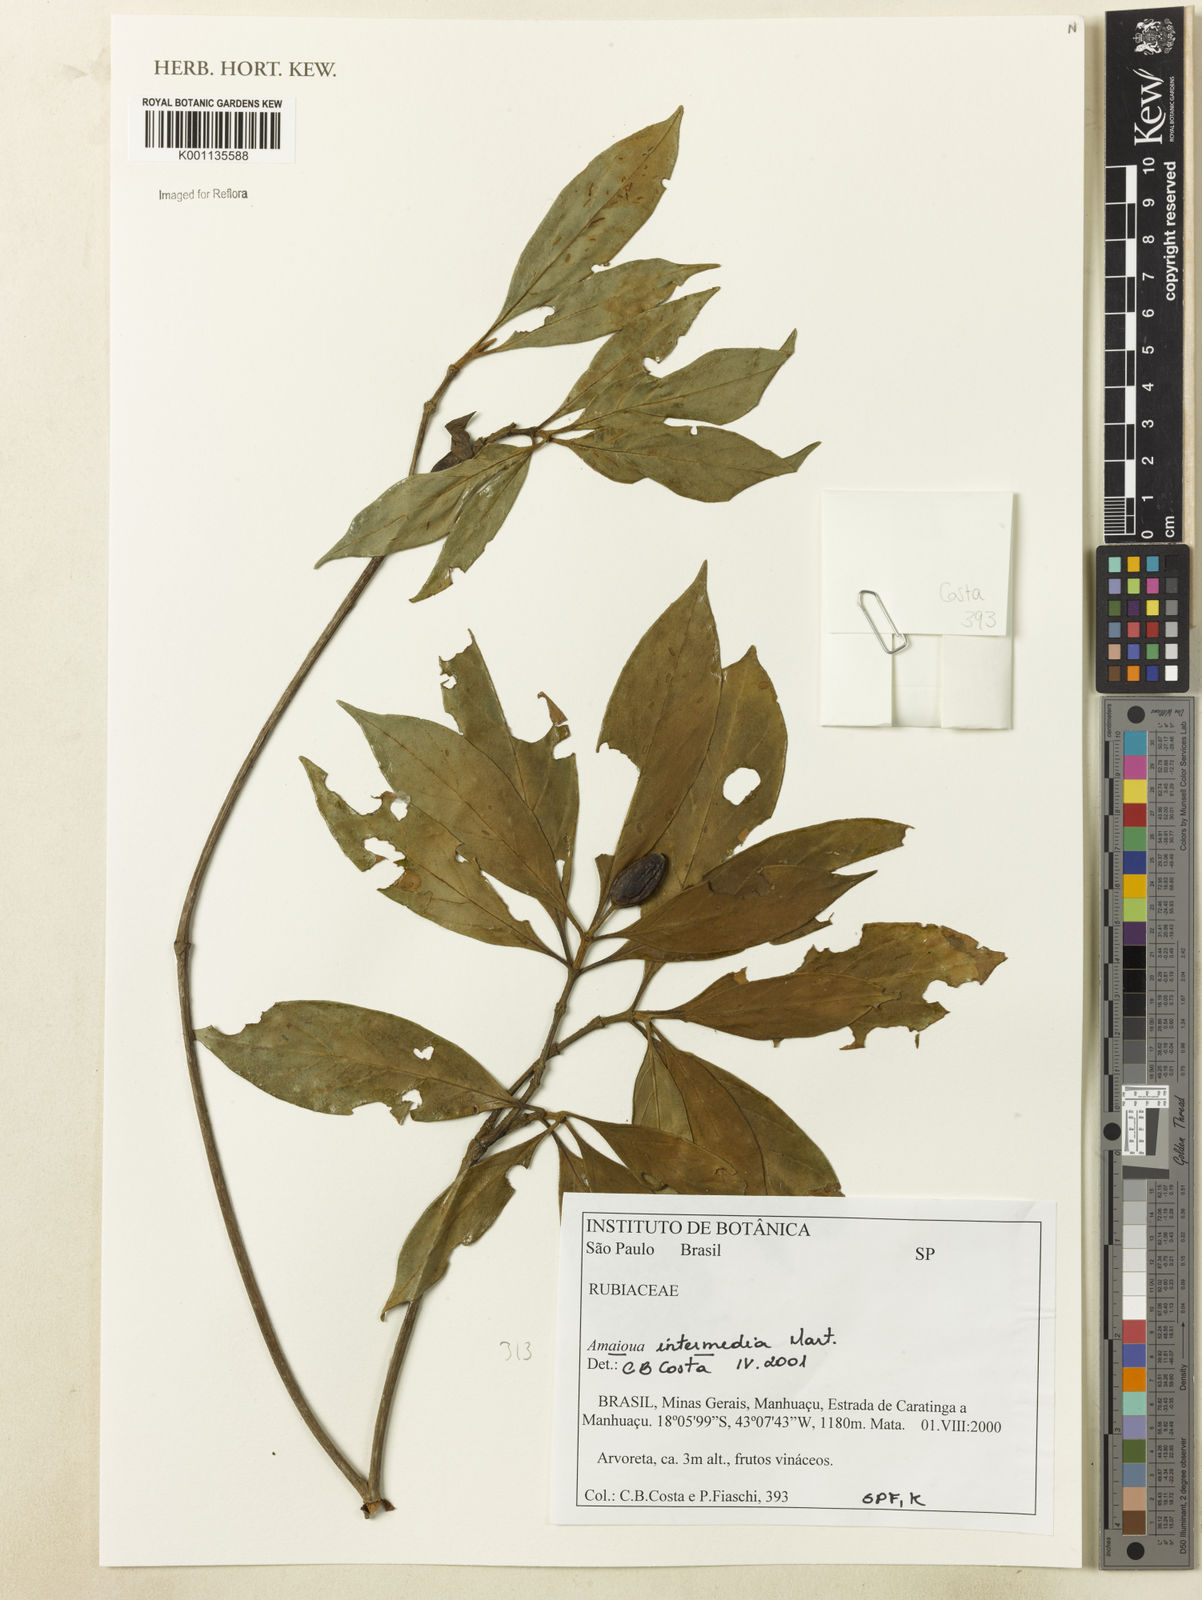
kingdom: Plantae
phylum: Tracheophyta
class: Magnoliopsida
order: Gentianales
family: Rubiaceae
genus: Amaioua
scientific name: Amaioua intermedia
